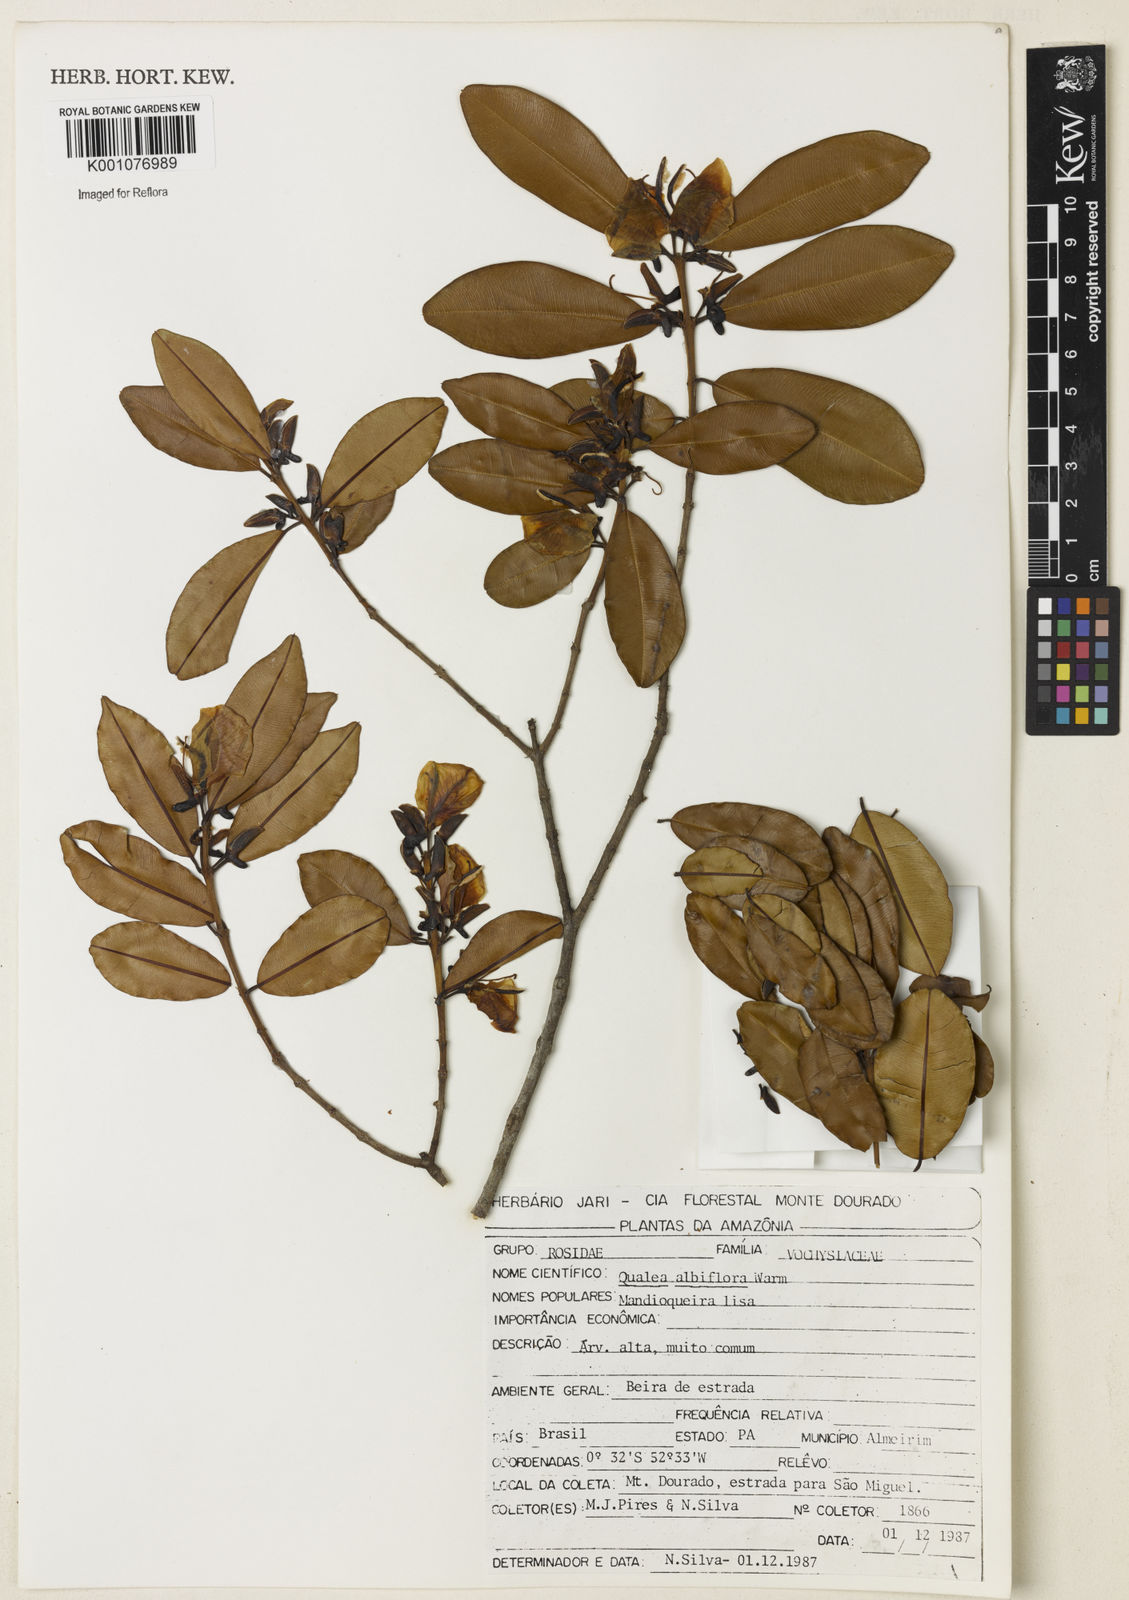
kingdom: Plantae
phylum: Tracheophyta
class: Magnoliopsida
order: Myrtales
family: Vochysiaceae
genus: Ruizterania
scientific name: Ruizterania albiflora
